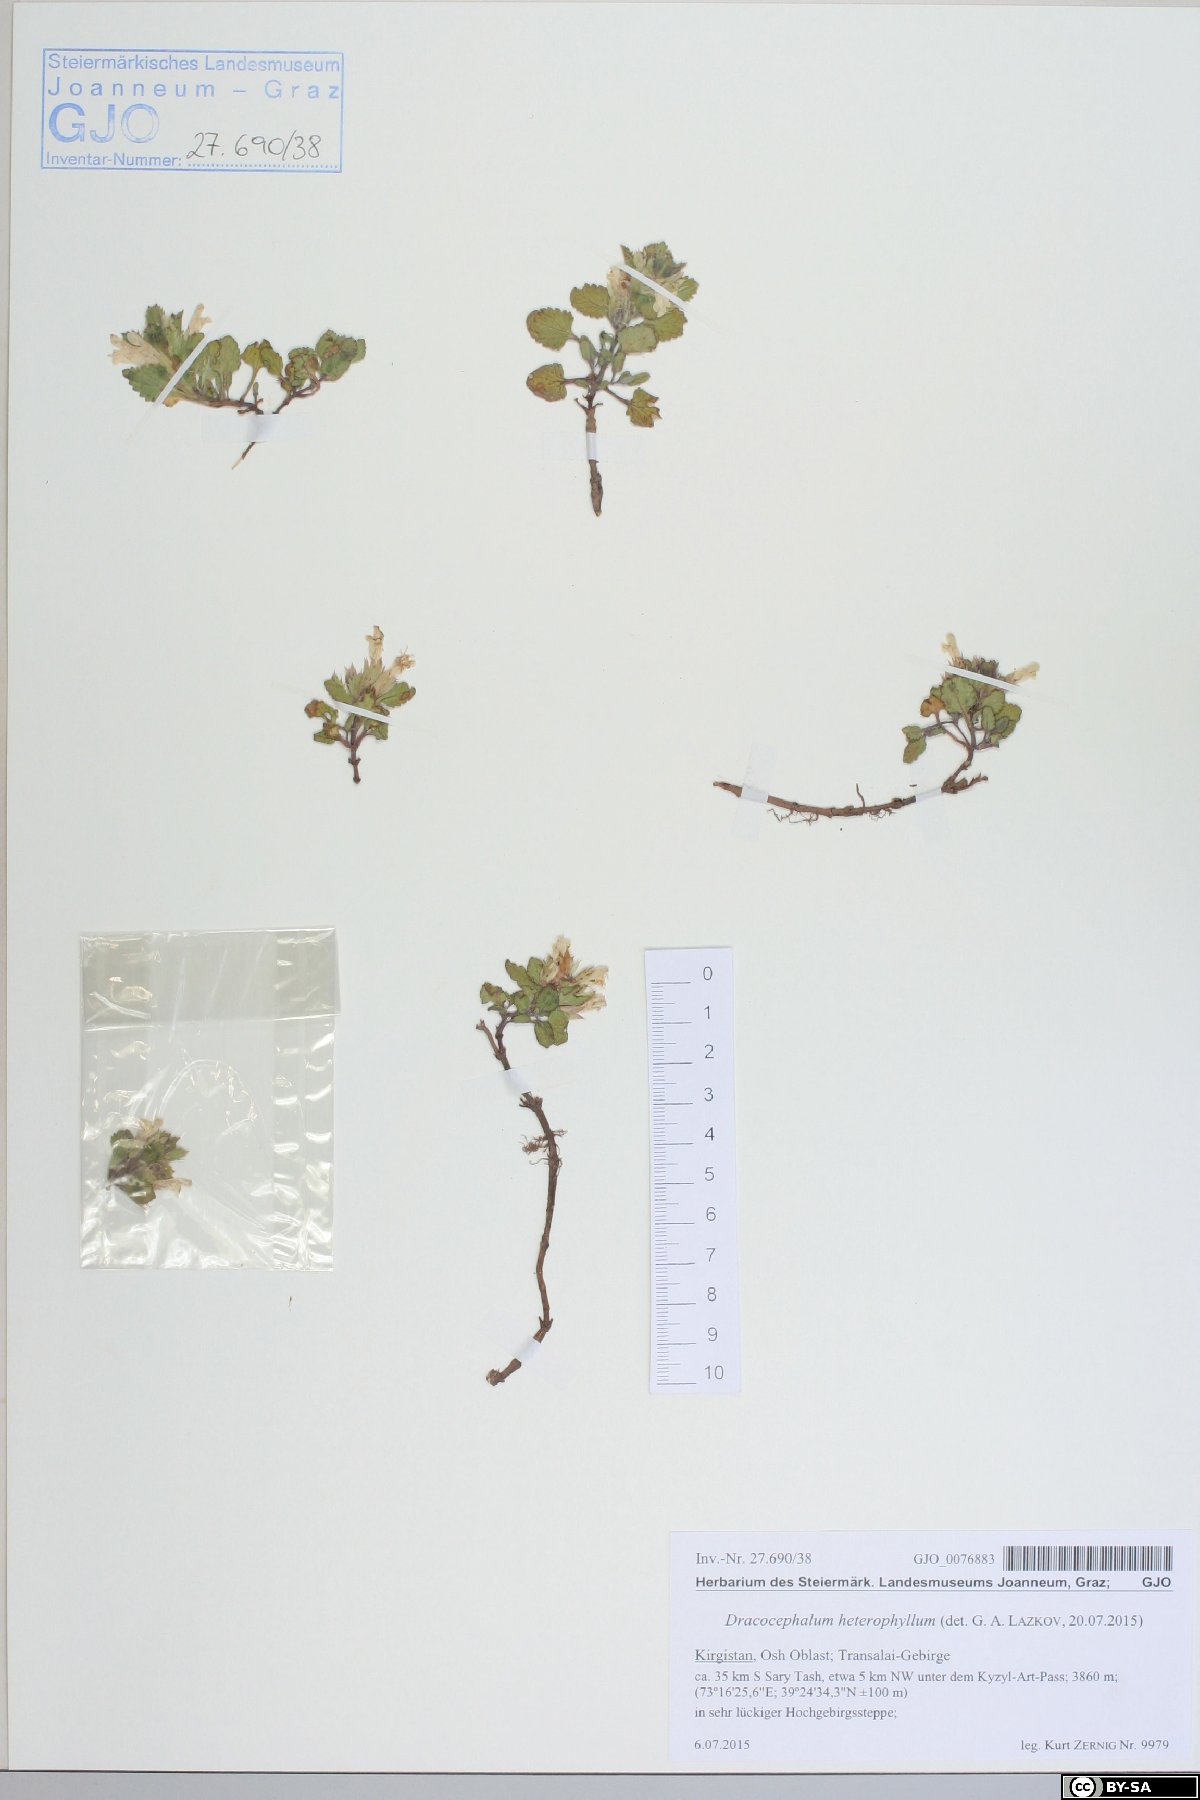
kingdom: Plantae
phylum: Tracheophyta
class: Magnoliopsida
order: Lamiales
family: Lamiaceae
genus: Dracocephalum
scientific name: Dracocephalum heterophyllum
